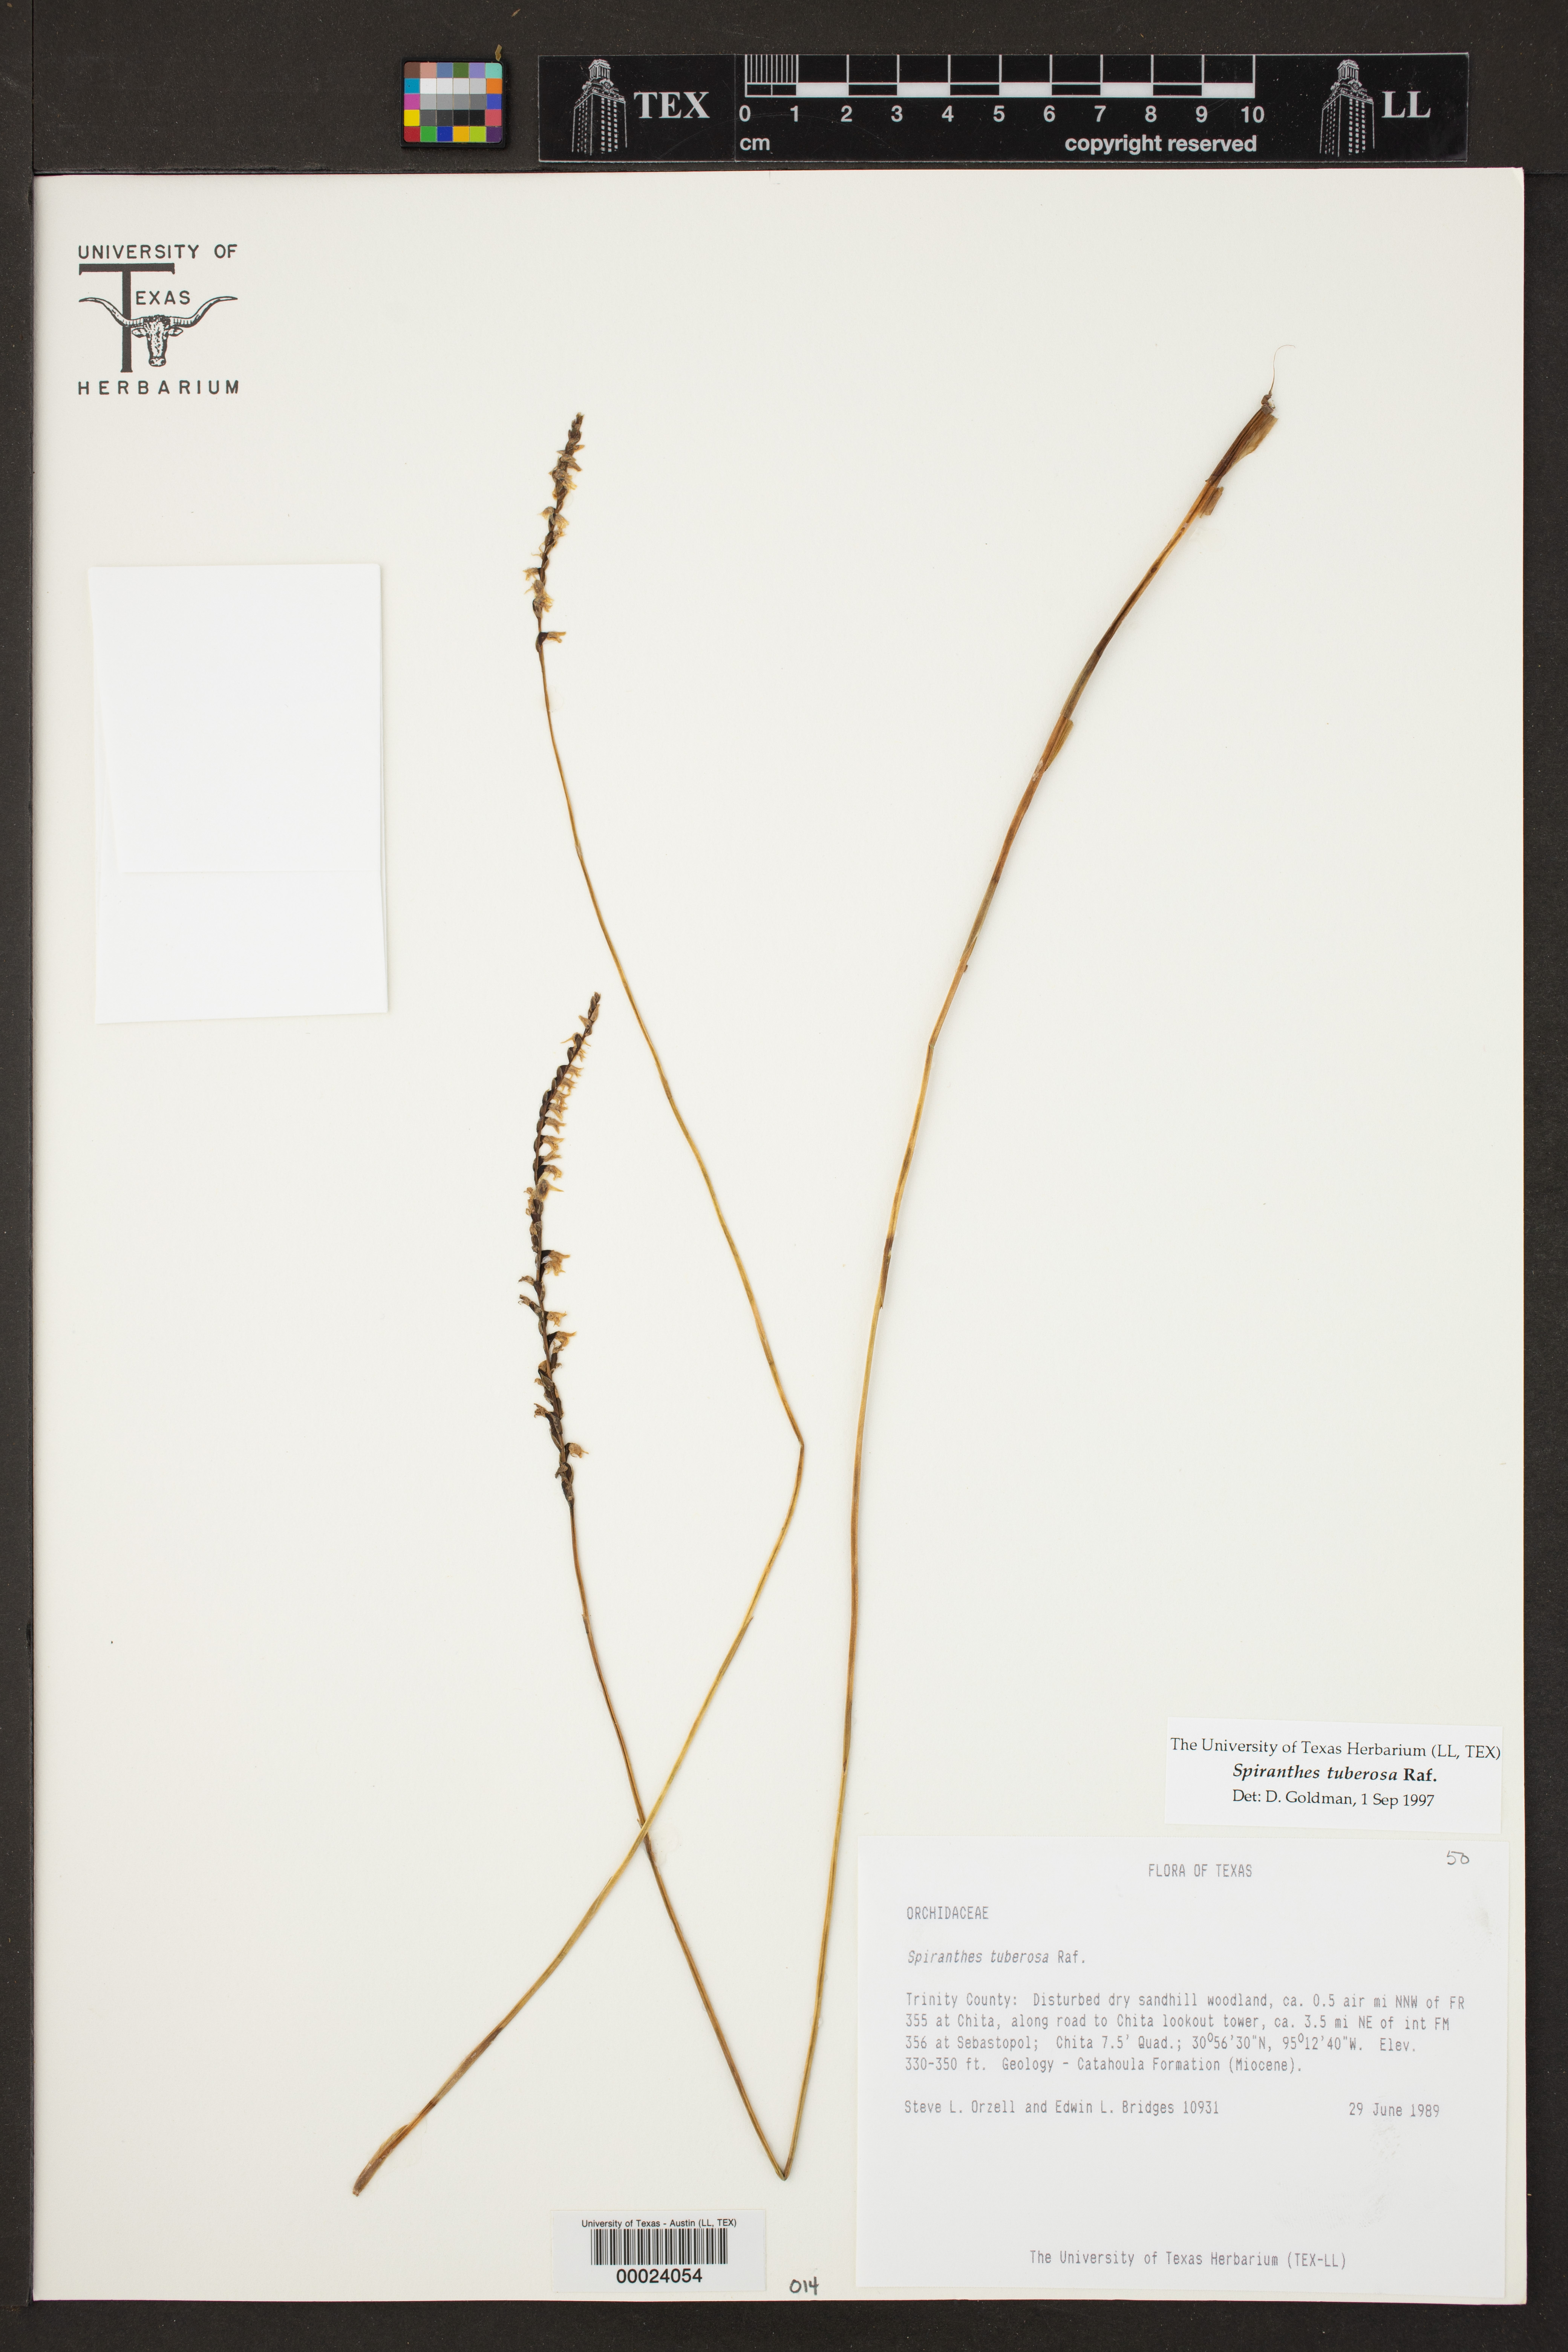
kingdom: Plantae
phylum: Tracheophyta
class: Liliopsida
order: Asparagales
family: Orchidaceae
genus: Spiranthes
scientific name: Spiranthes tuberosa
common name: Little ladies'-tresses
